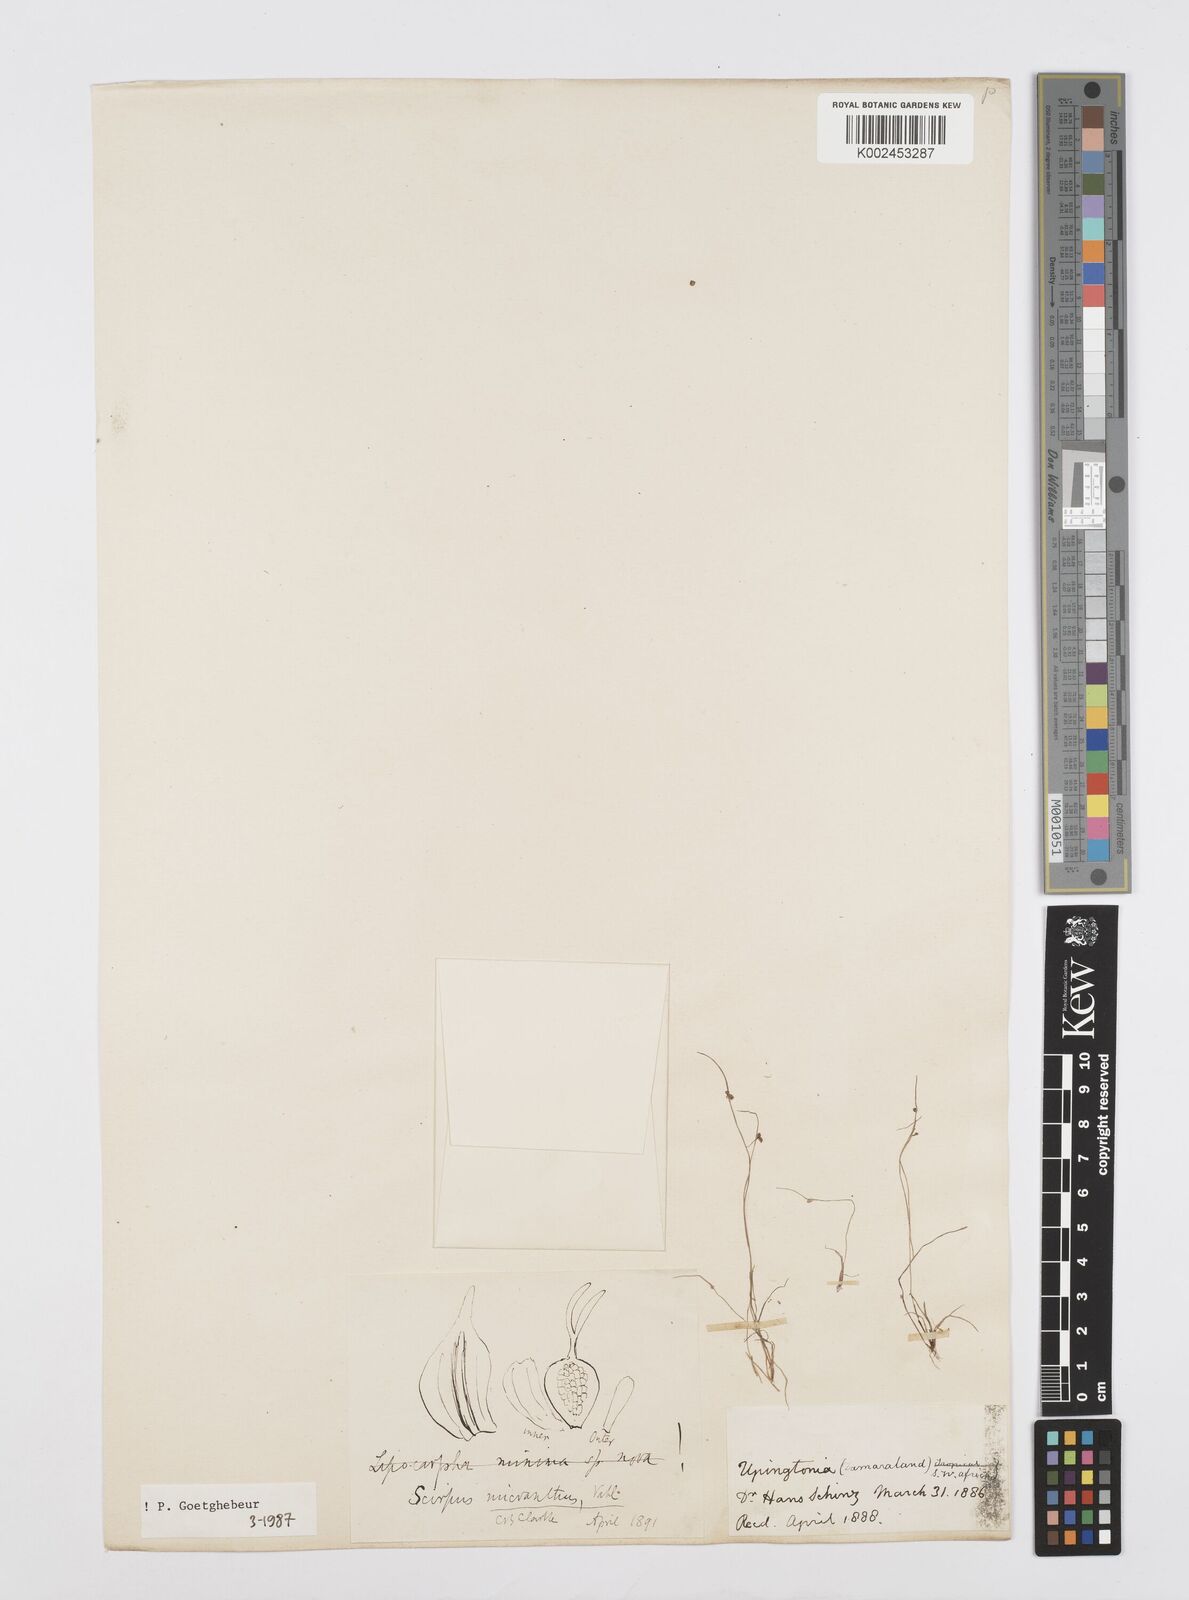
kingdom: Plantae
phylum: Tracheophyta
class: Liliopsida
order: Poales
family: Cyperaceae
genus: Cyperus
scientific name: Cyperus dentatus
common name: Dentate umbrella sedge
